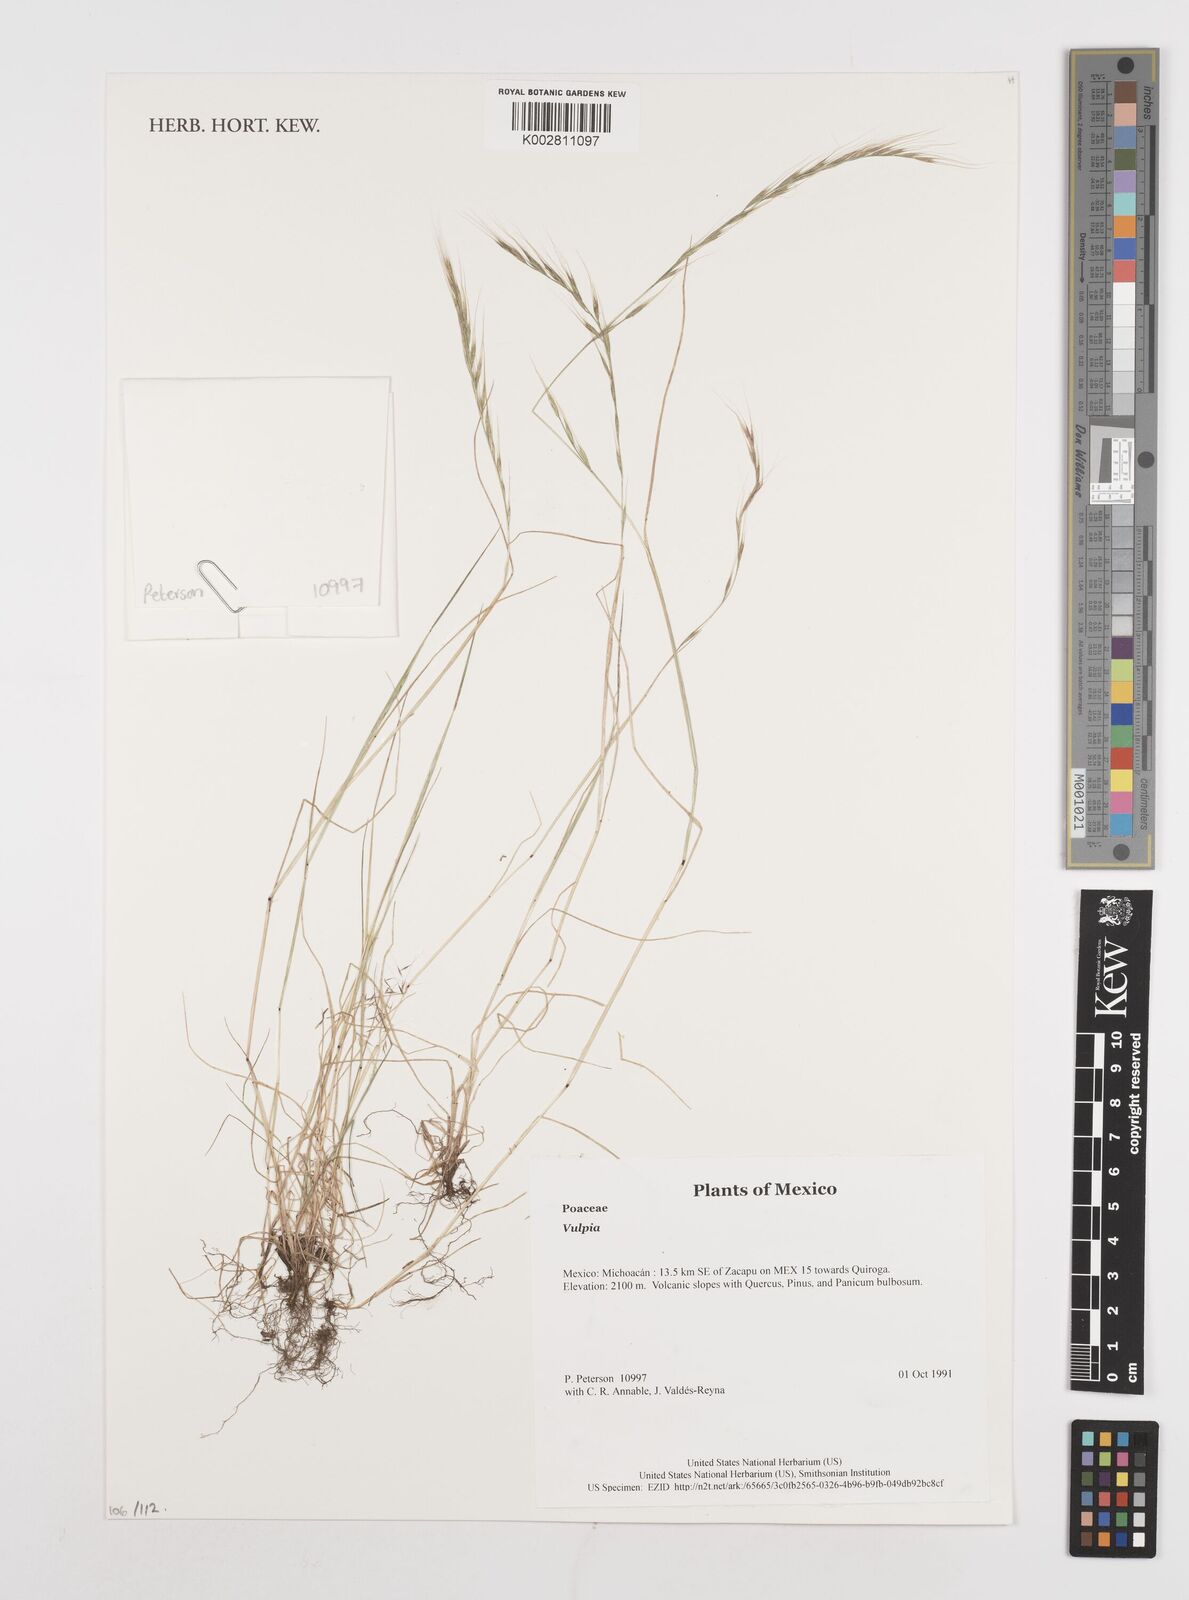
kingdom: Plantae
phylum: Tracheophyta
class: Liliopsida
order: Poales
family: Poaceae
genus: Festuca
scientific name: Festuca
